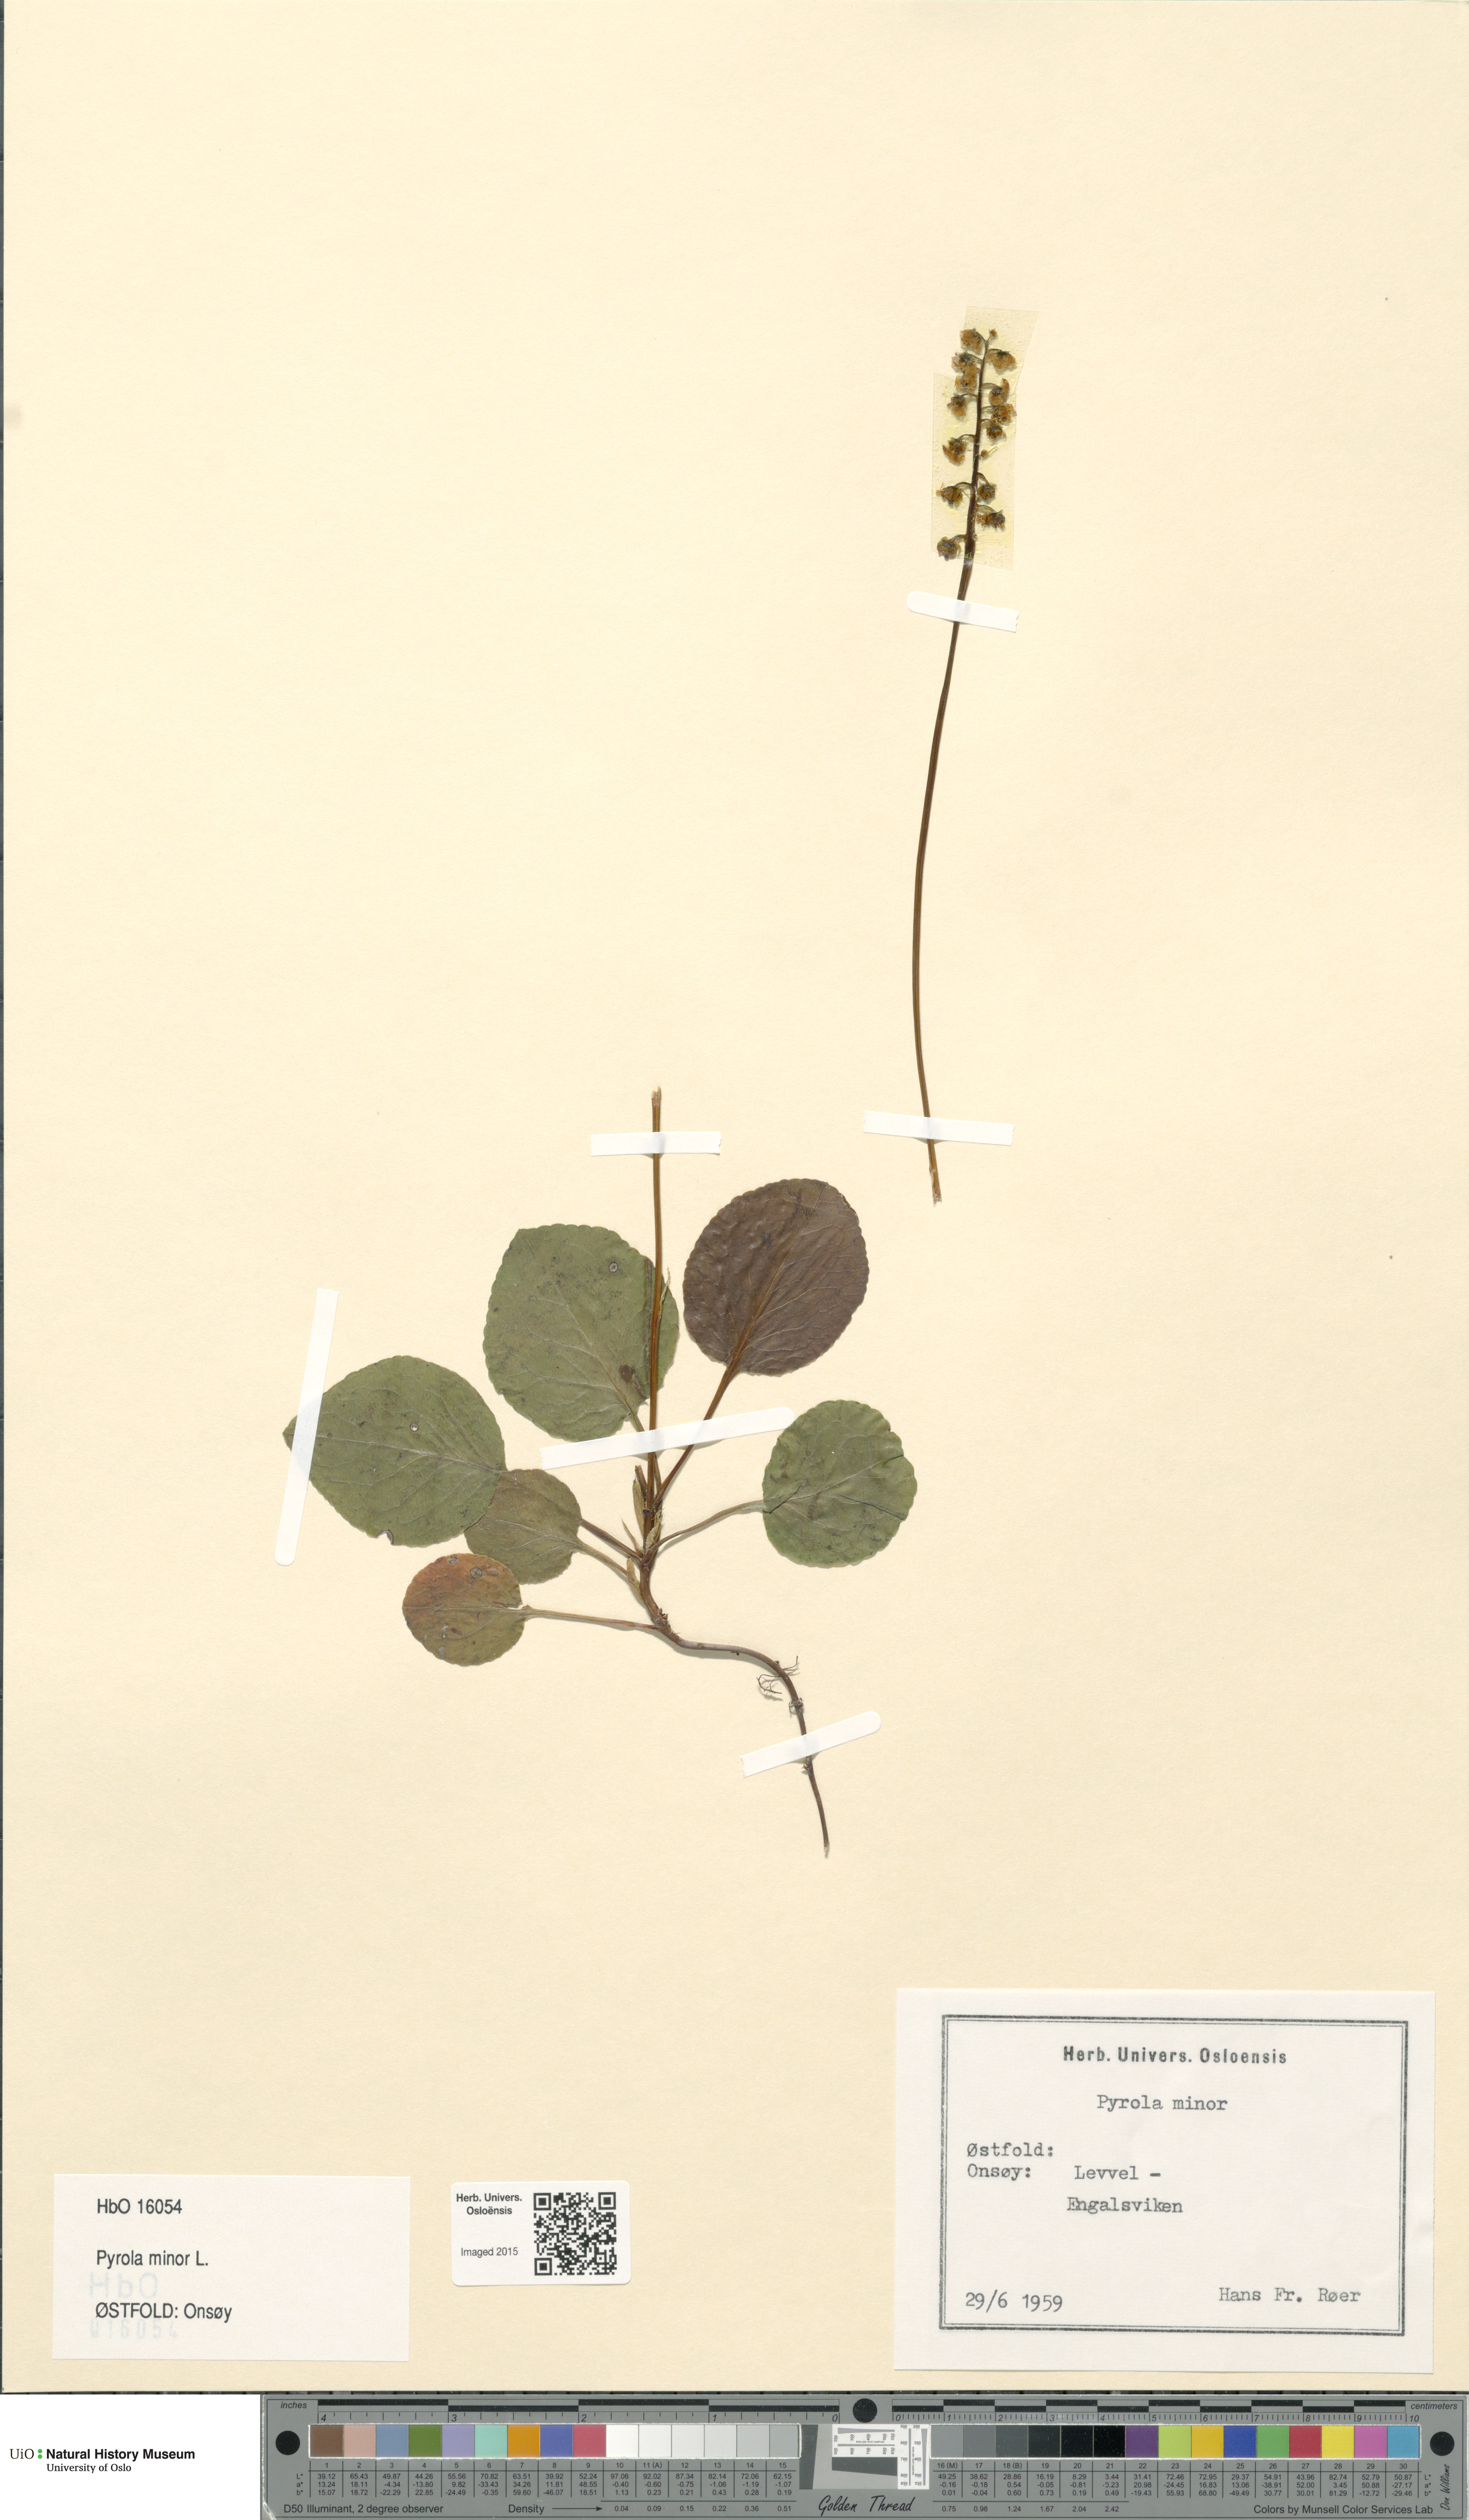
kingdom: Plantae
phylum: Tracheophyta
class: Magnoliopsida
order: Ericales
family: Ericaceae
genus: Pyrola
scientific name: Pyrola minor
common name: Common wintergreen
